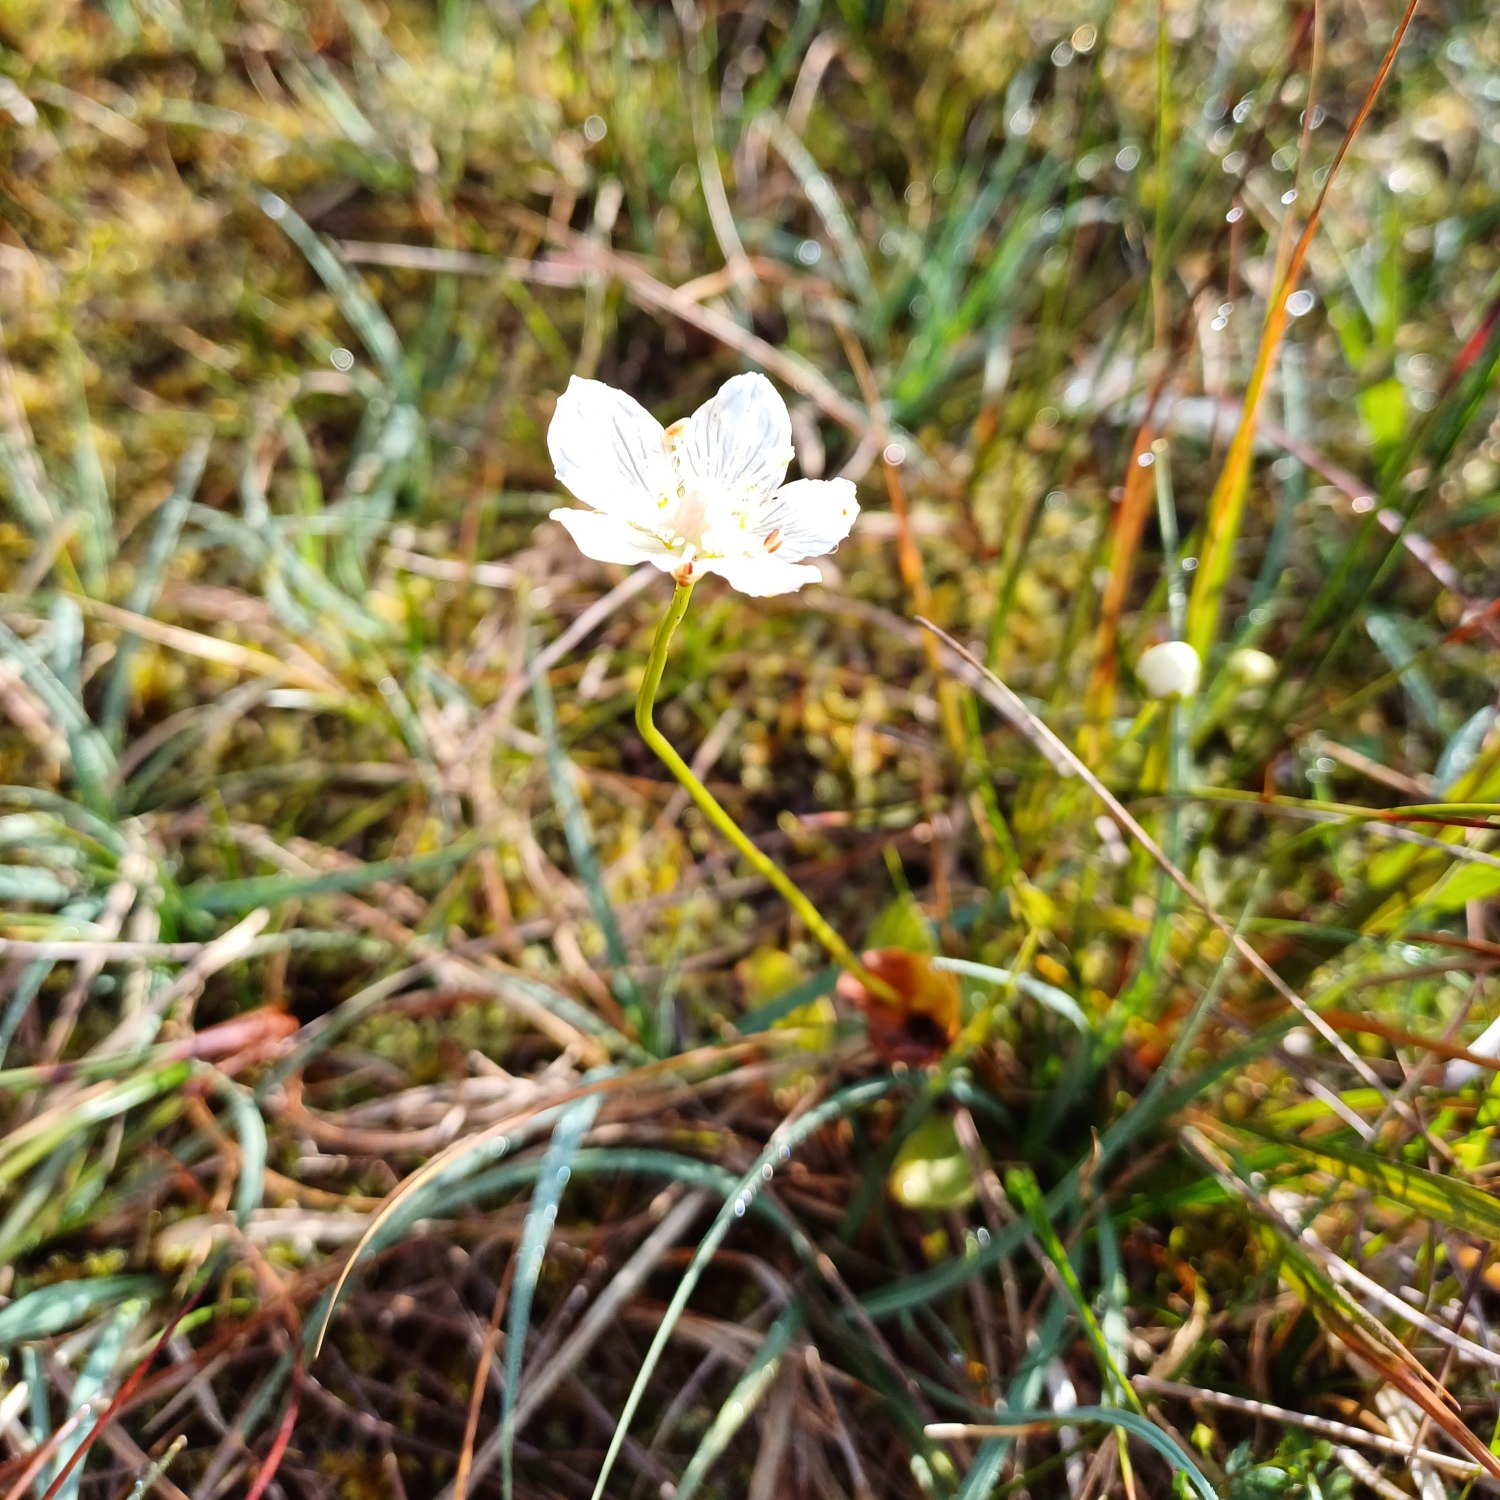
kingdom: Plantae
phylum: Tracheophyta
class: Magnoliopsida
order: Celastrales
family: Parnassiaceae
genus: Parnassia
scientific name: Parnassia palustris
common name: Leverurt
